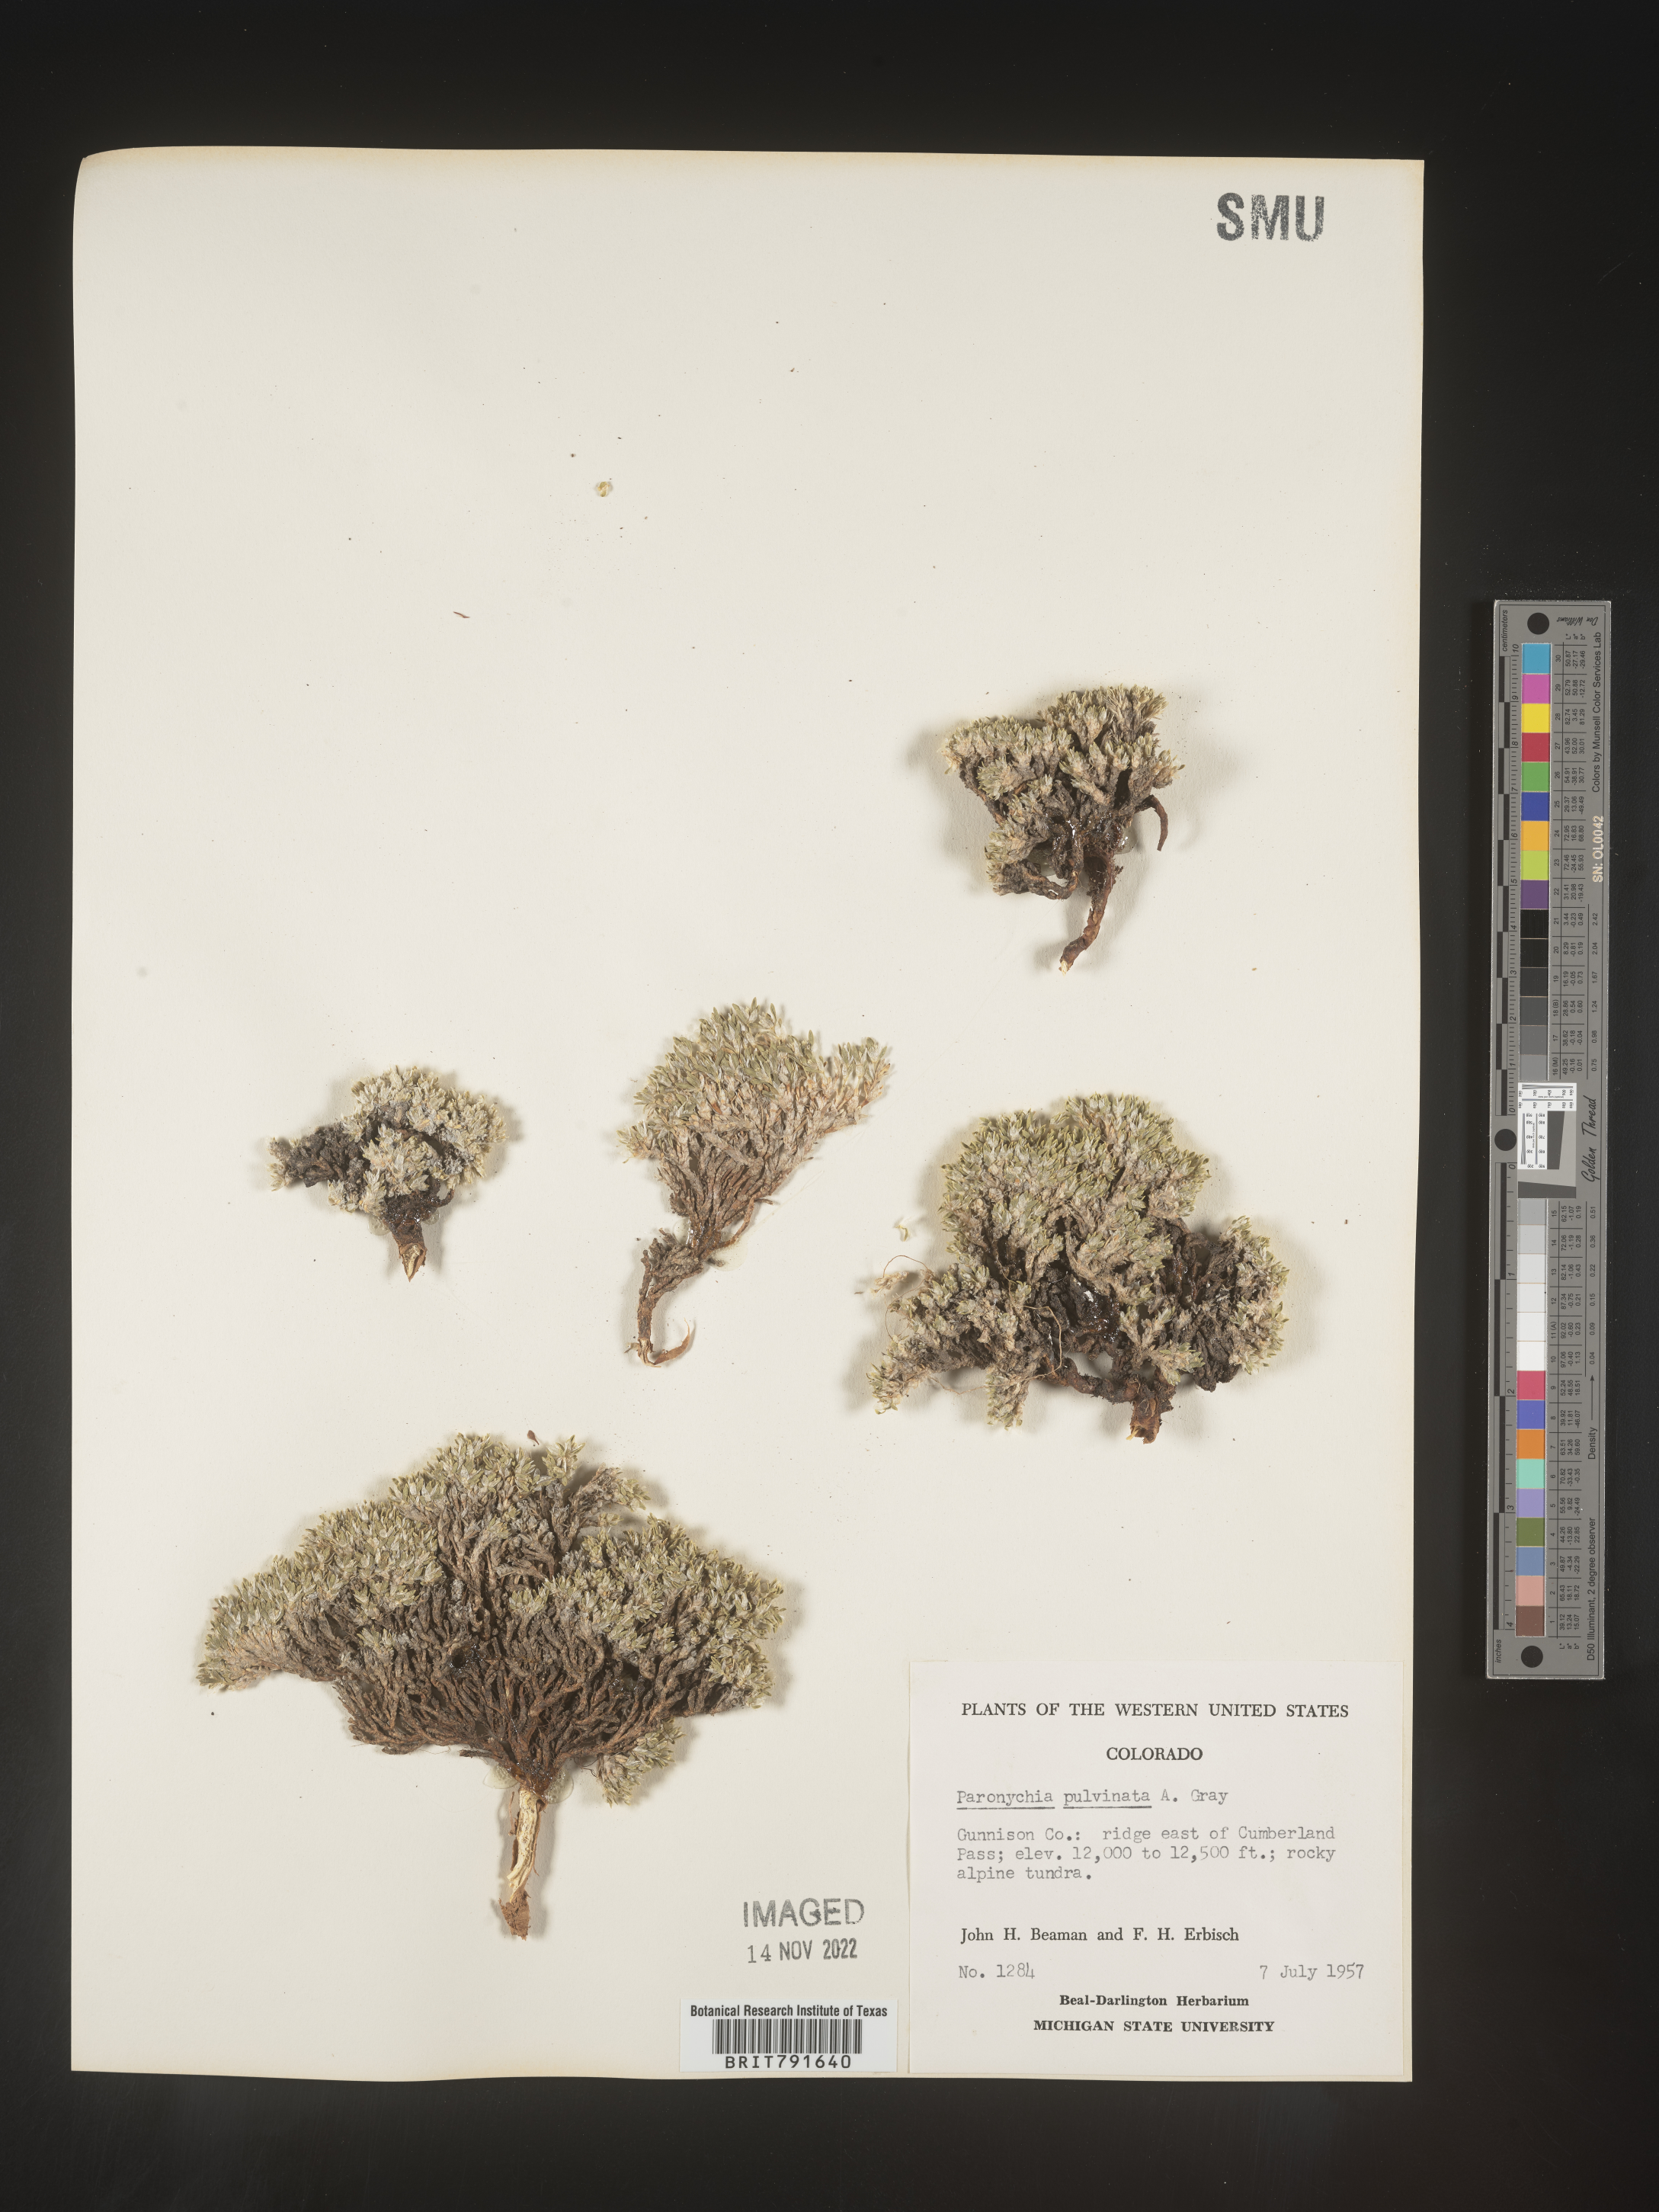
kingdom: Plantae
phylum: Tracheophyta
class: Magnoliopsida
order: Caryophyllales
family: Caryophyllaceae
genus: Paronychia
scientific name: Paronychia pulvinata
